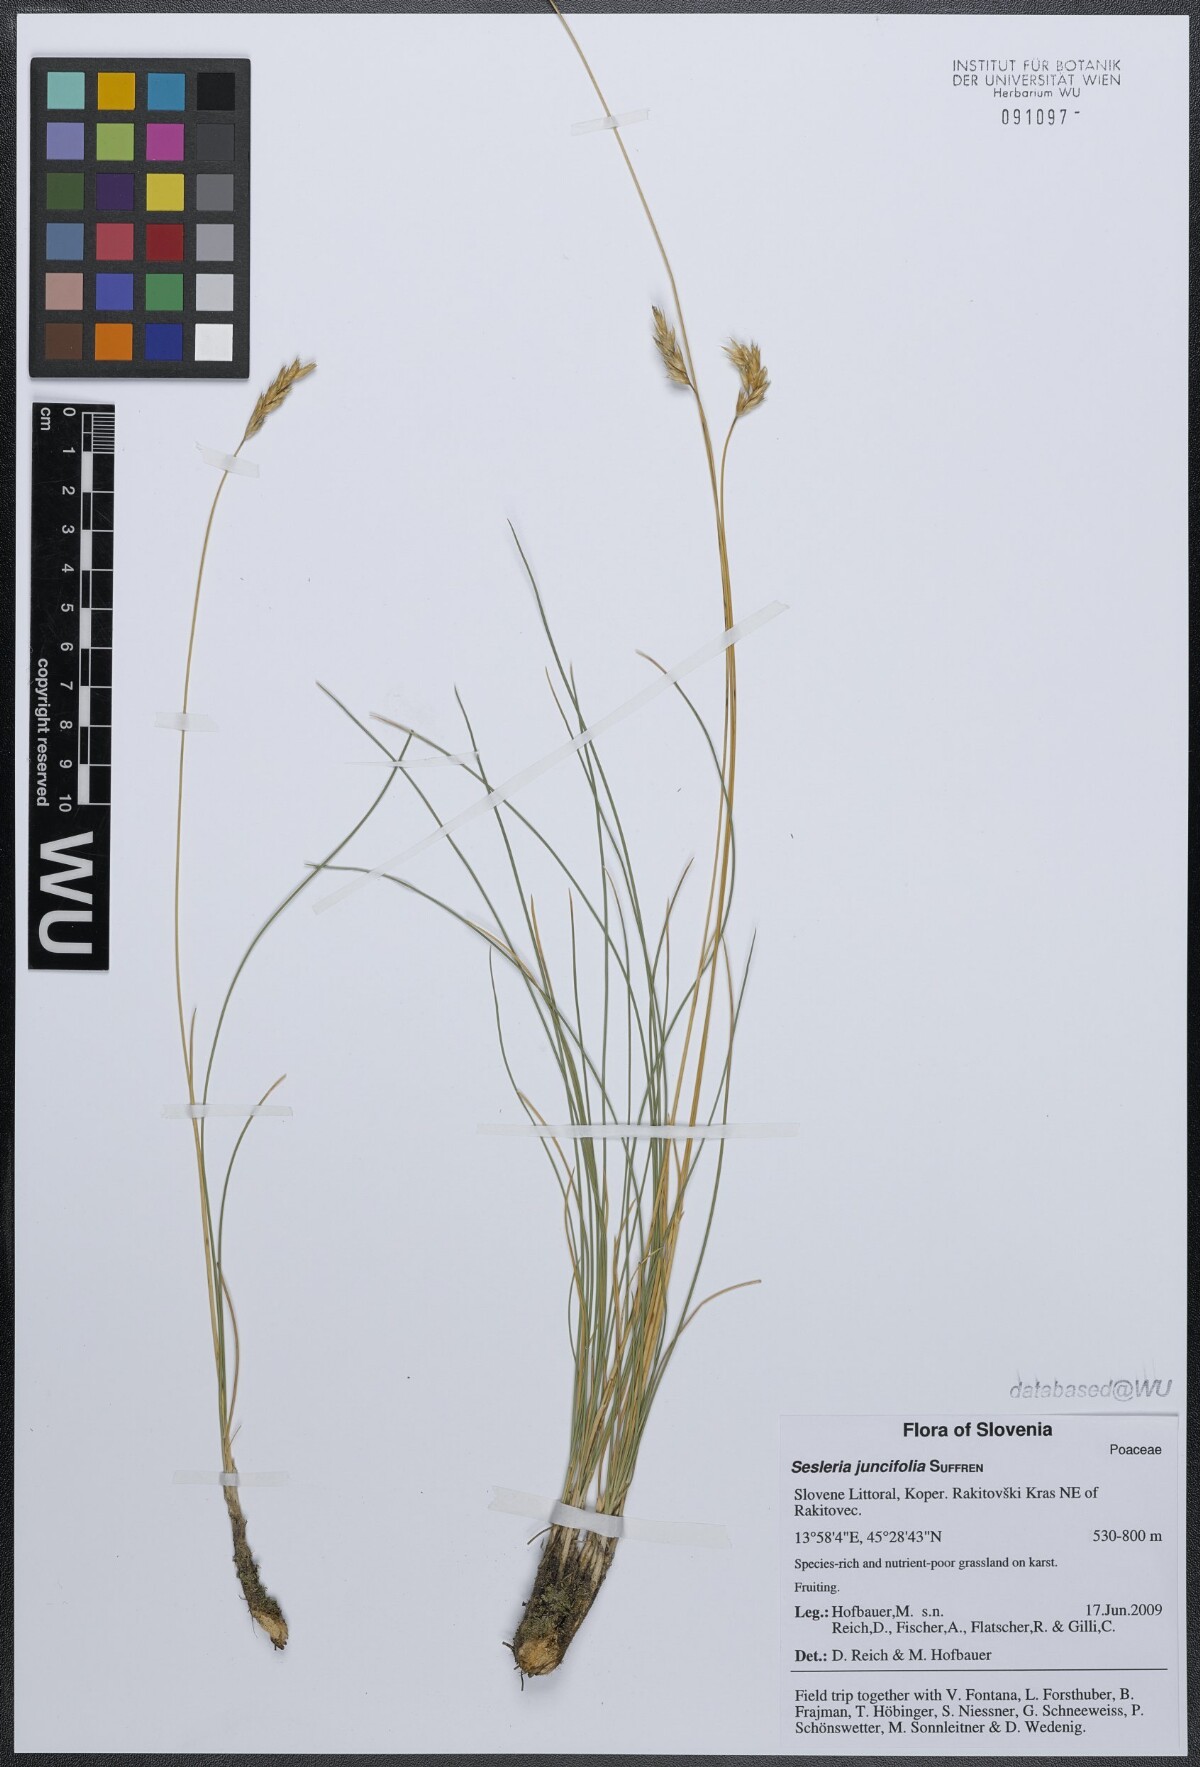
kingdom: Plantae
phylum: Tracheophyta
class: Liliopsida
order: Poales
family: Poaceae
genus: Sesleria
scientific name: Sesleria juncifolia
